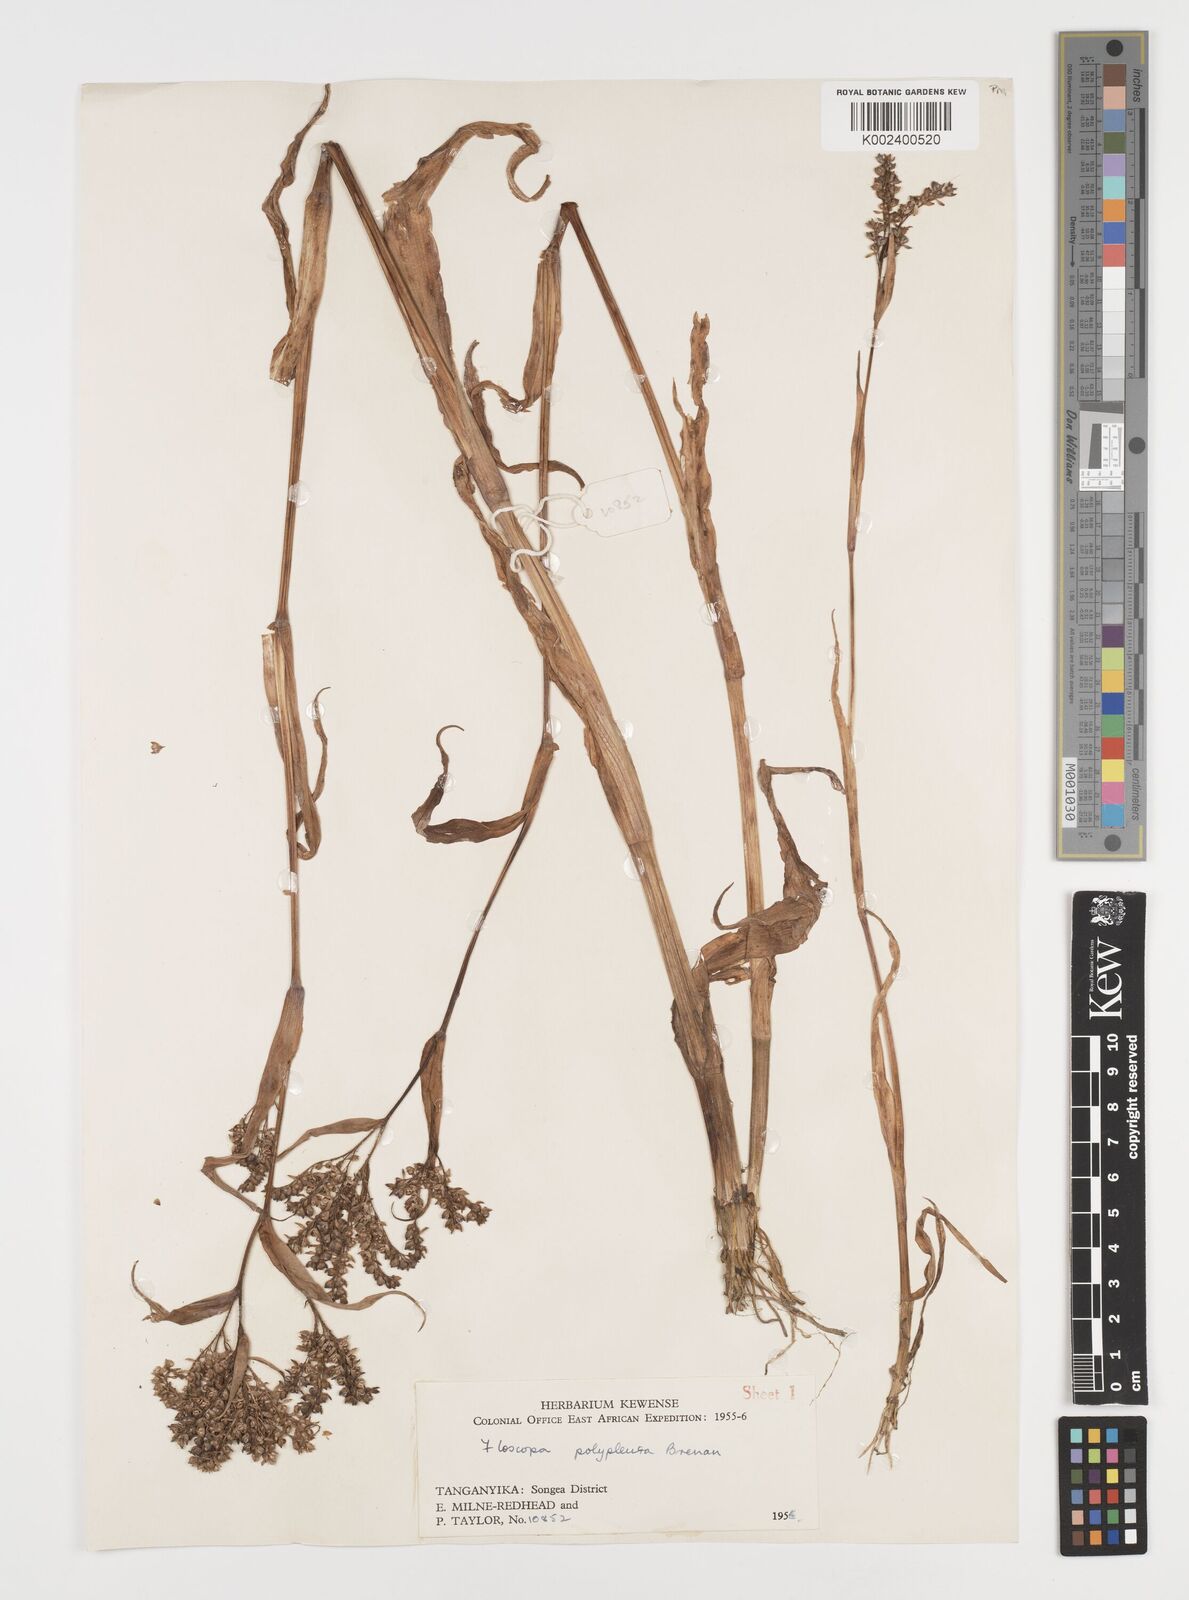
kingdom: Plantae
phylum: Tracheophyta
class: Liliopsida
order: Commelinales
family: Commelinaceae
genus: Floscopa
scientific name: Floscopa polypleura
